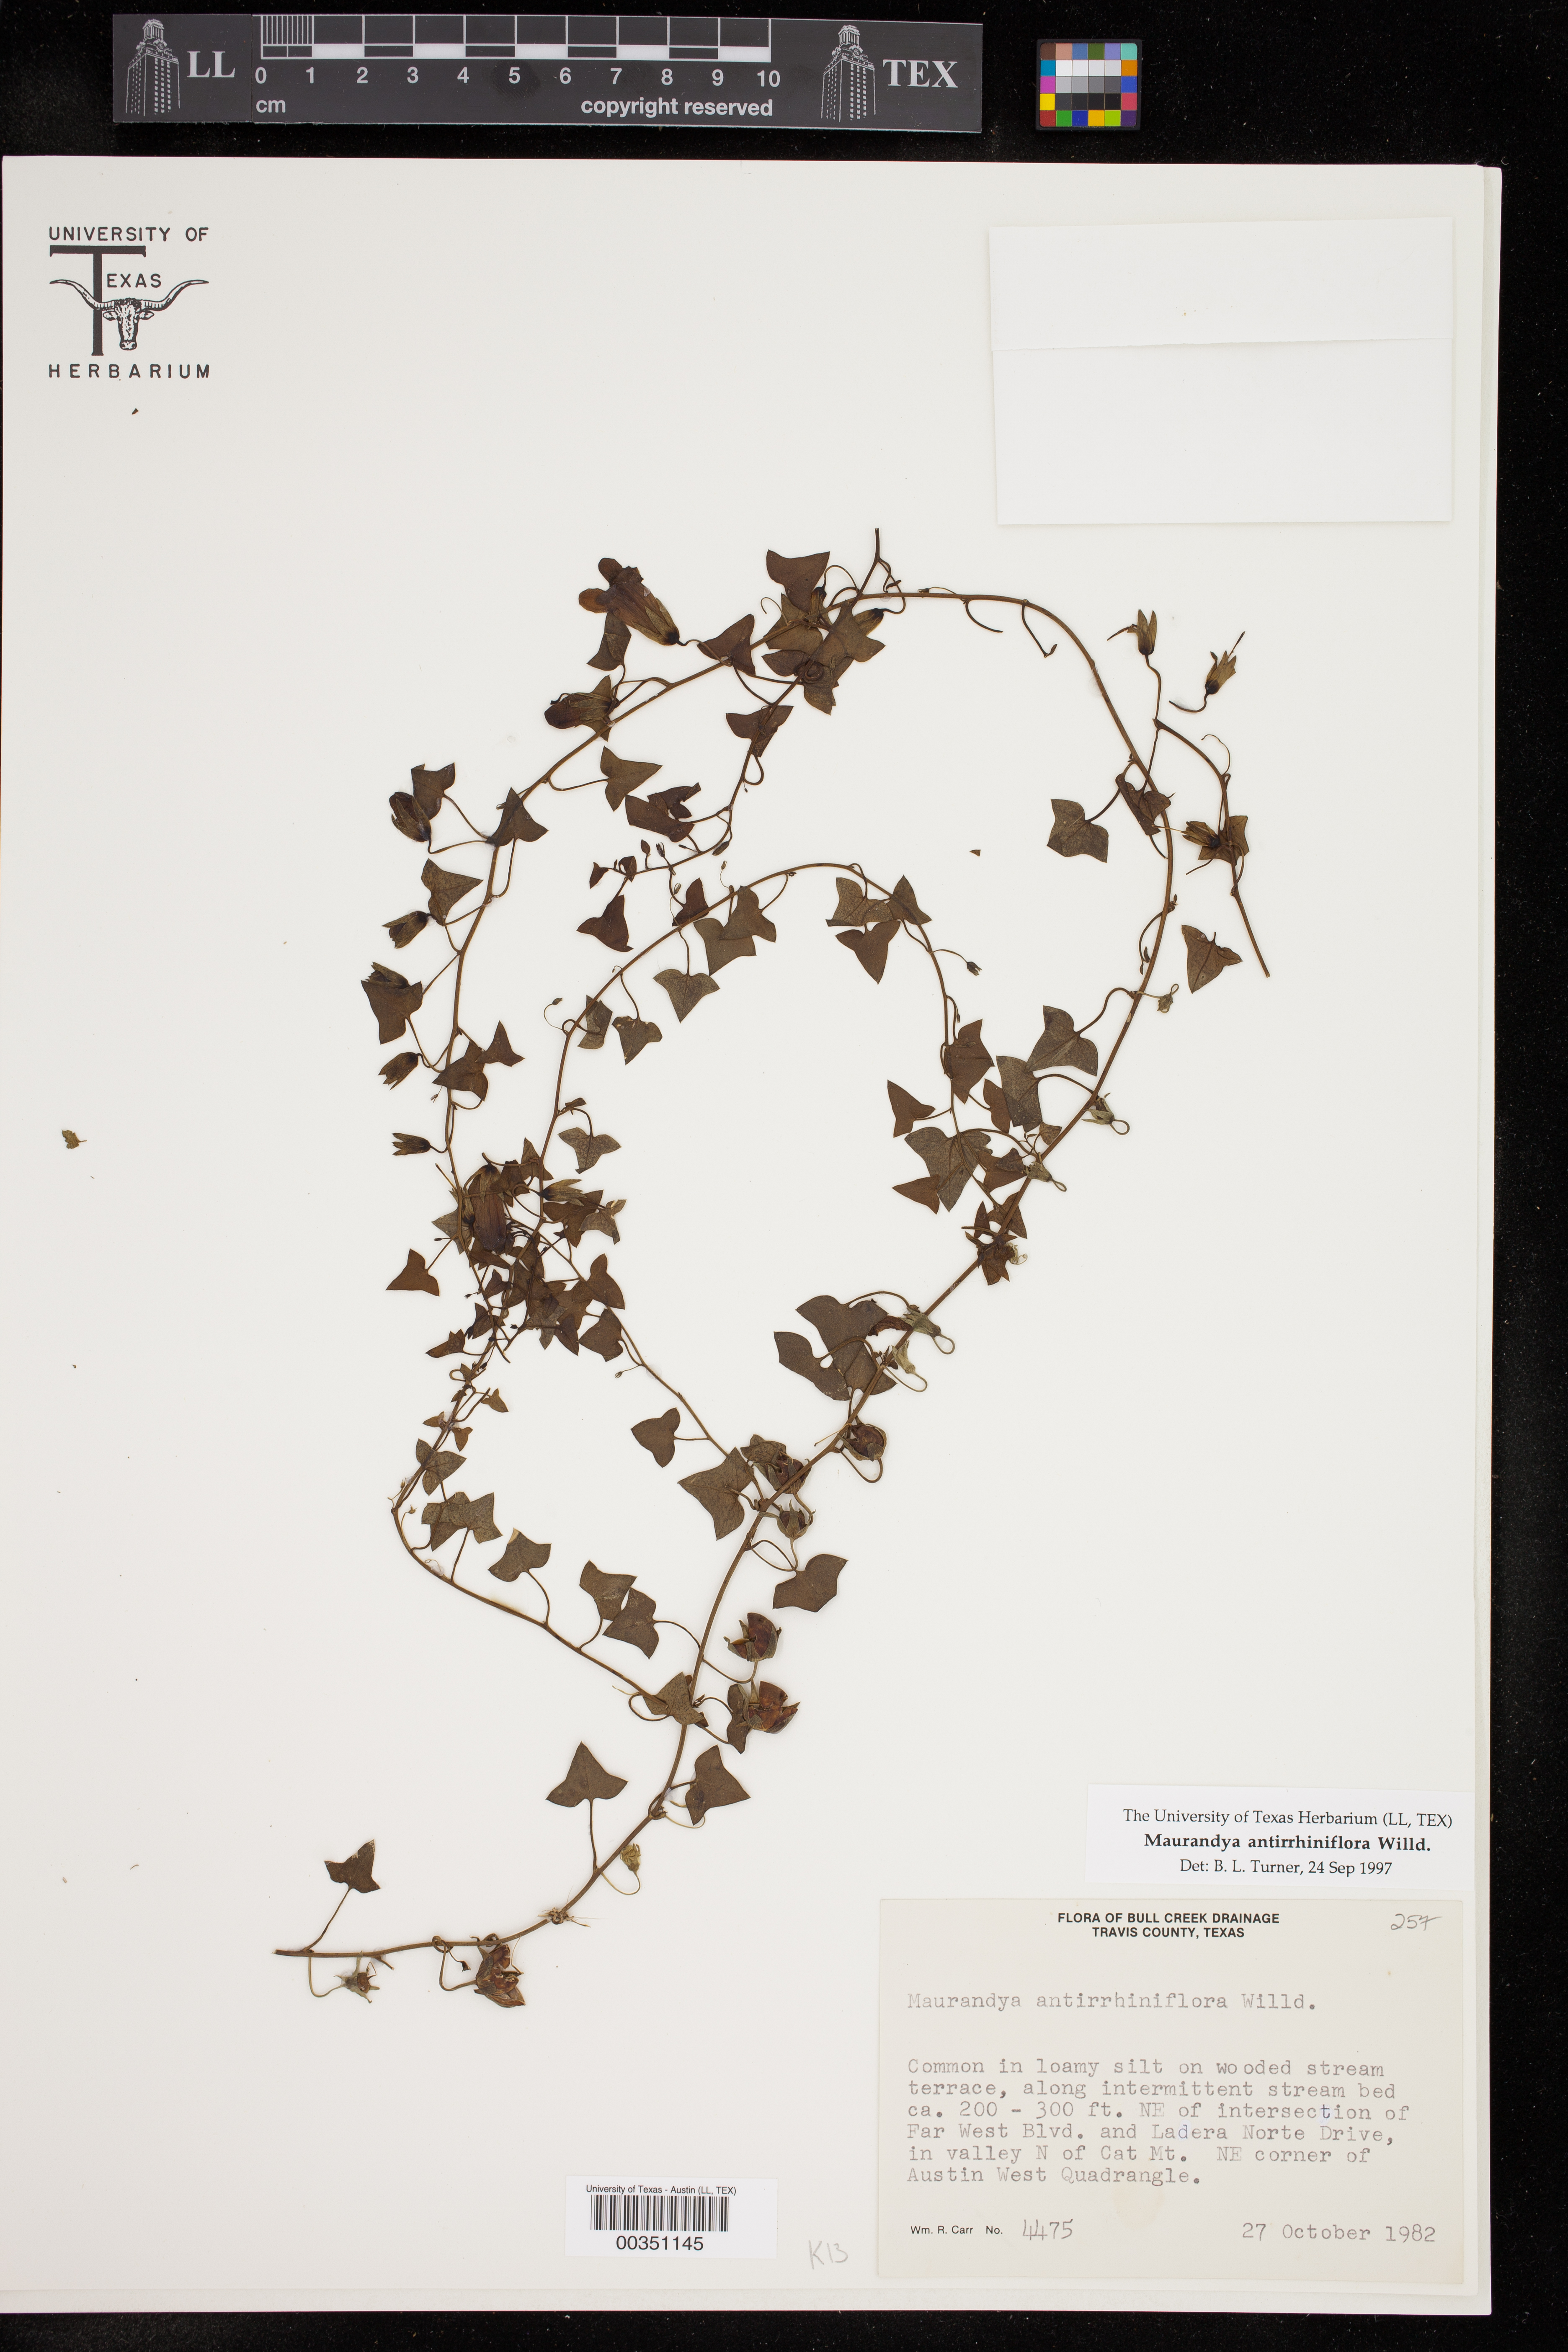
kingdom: Plantae
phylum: Tracheophyta
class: Magnoliopsida
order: Lamiales
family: Plantaginaceae
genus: Maurandella
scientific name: Maurandella antirrhiniflora
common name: Violet twining-snapdragon
